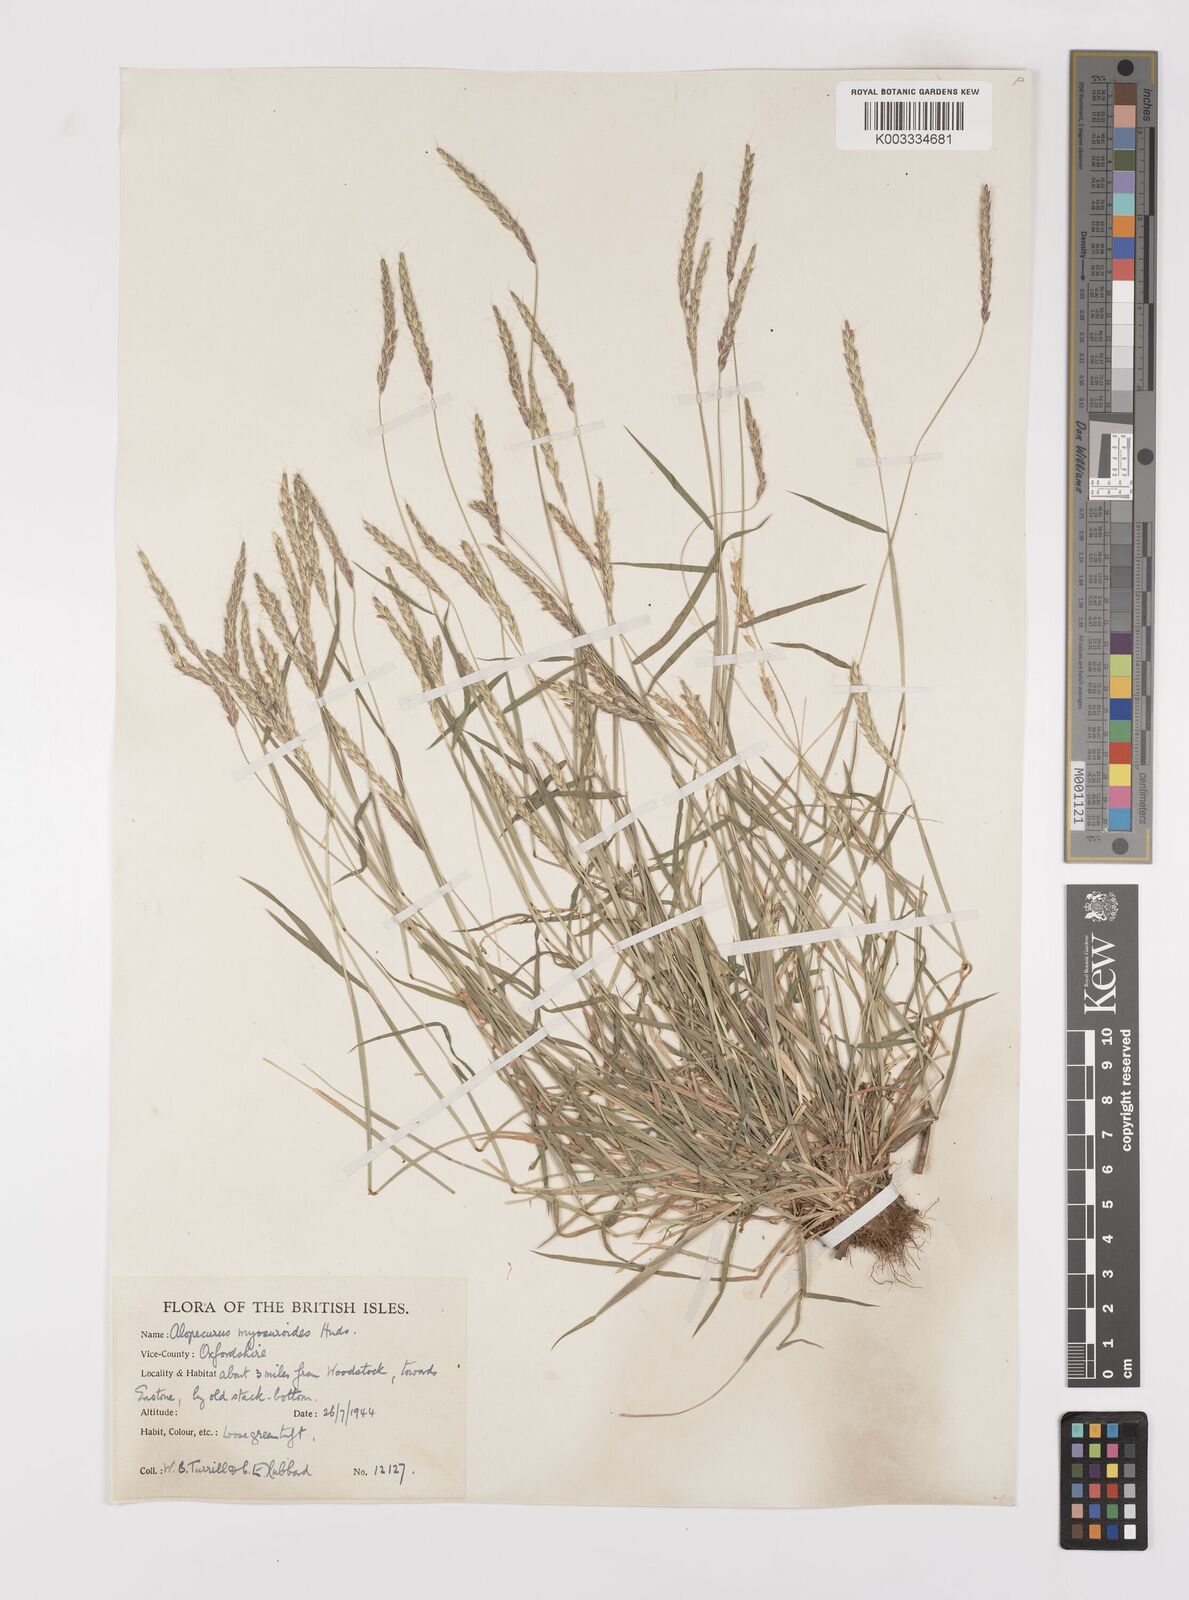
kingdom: Plantae
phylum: Tracheophyta
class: Liliopsida
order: Poales
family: Poaceae
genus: Alopecurus
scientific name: Alopecurus myosuroides
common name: Black-grass
